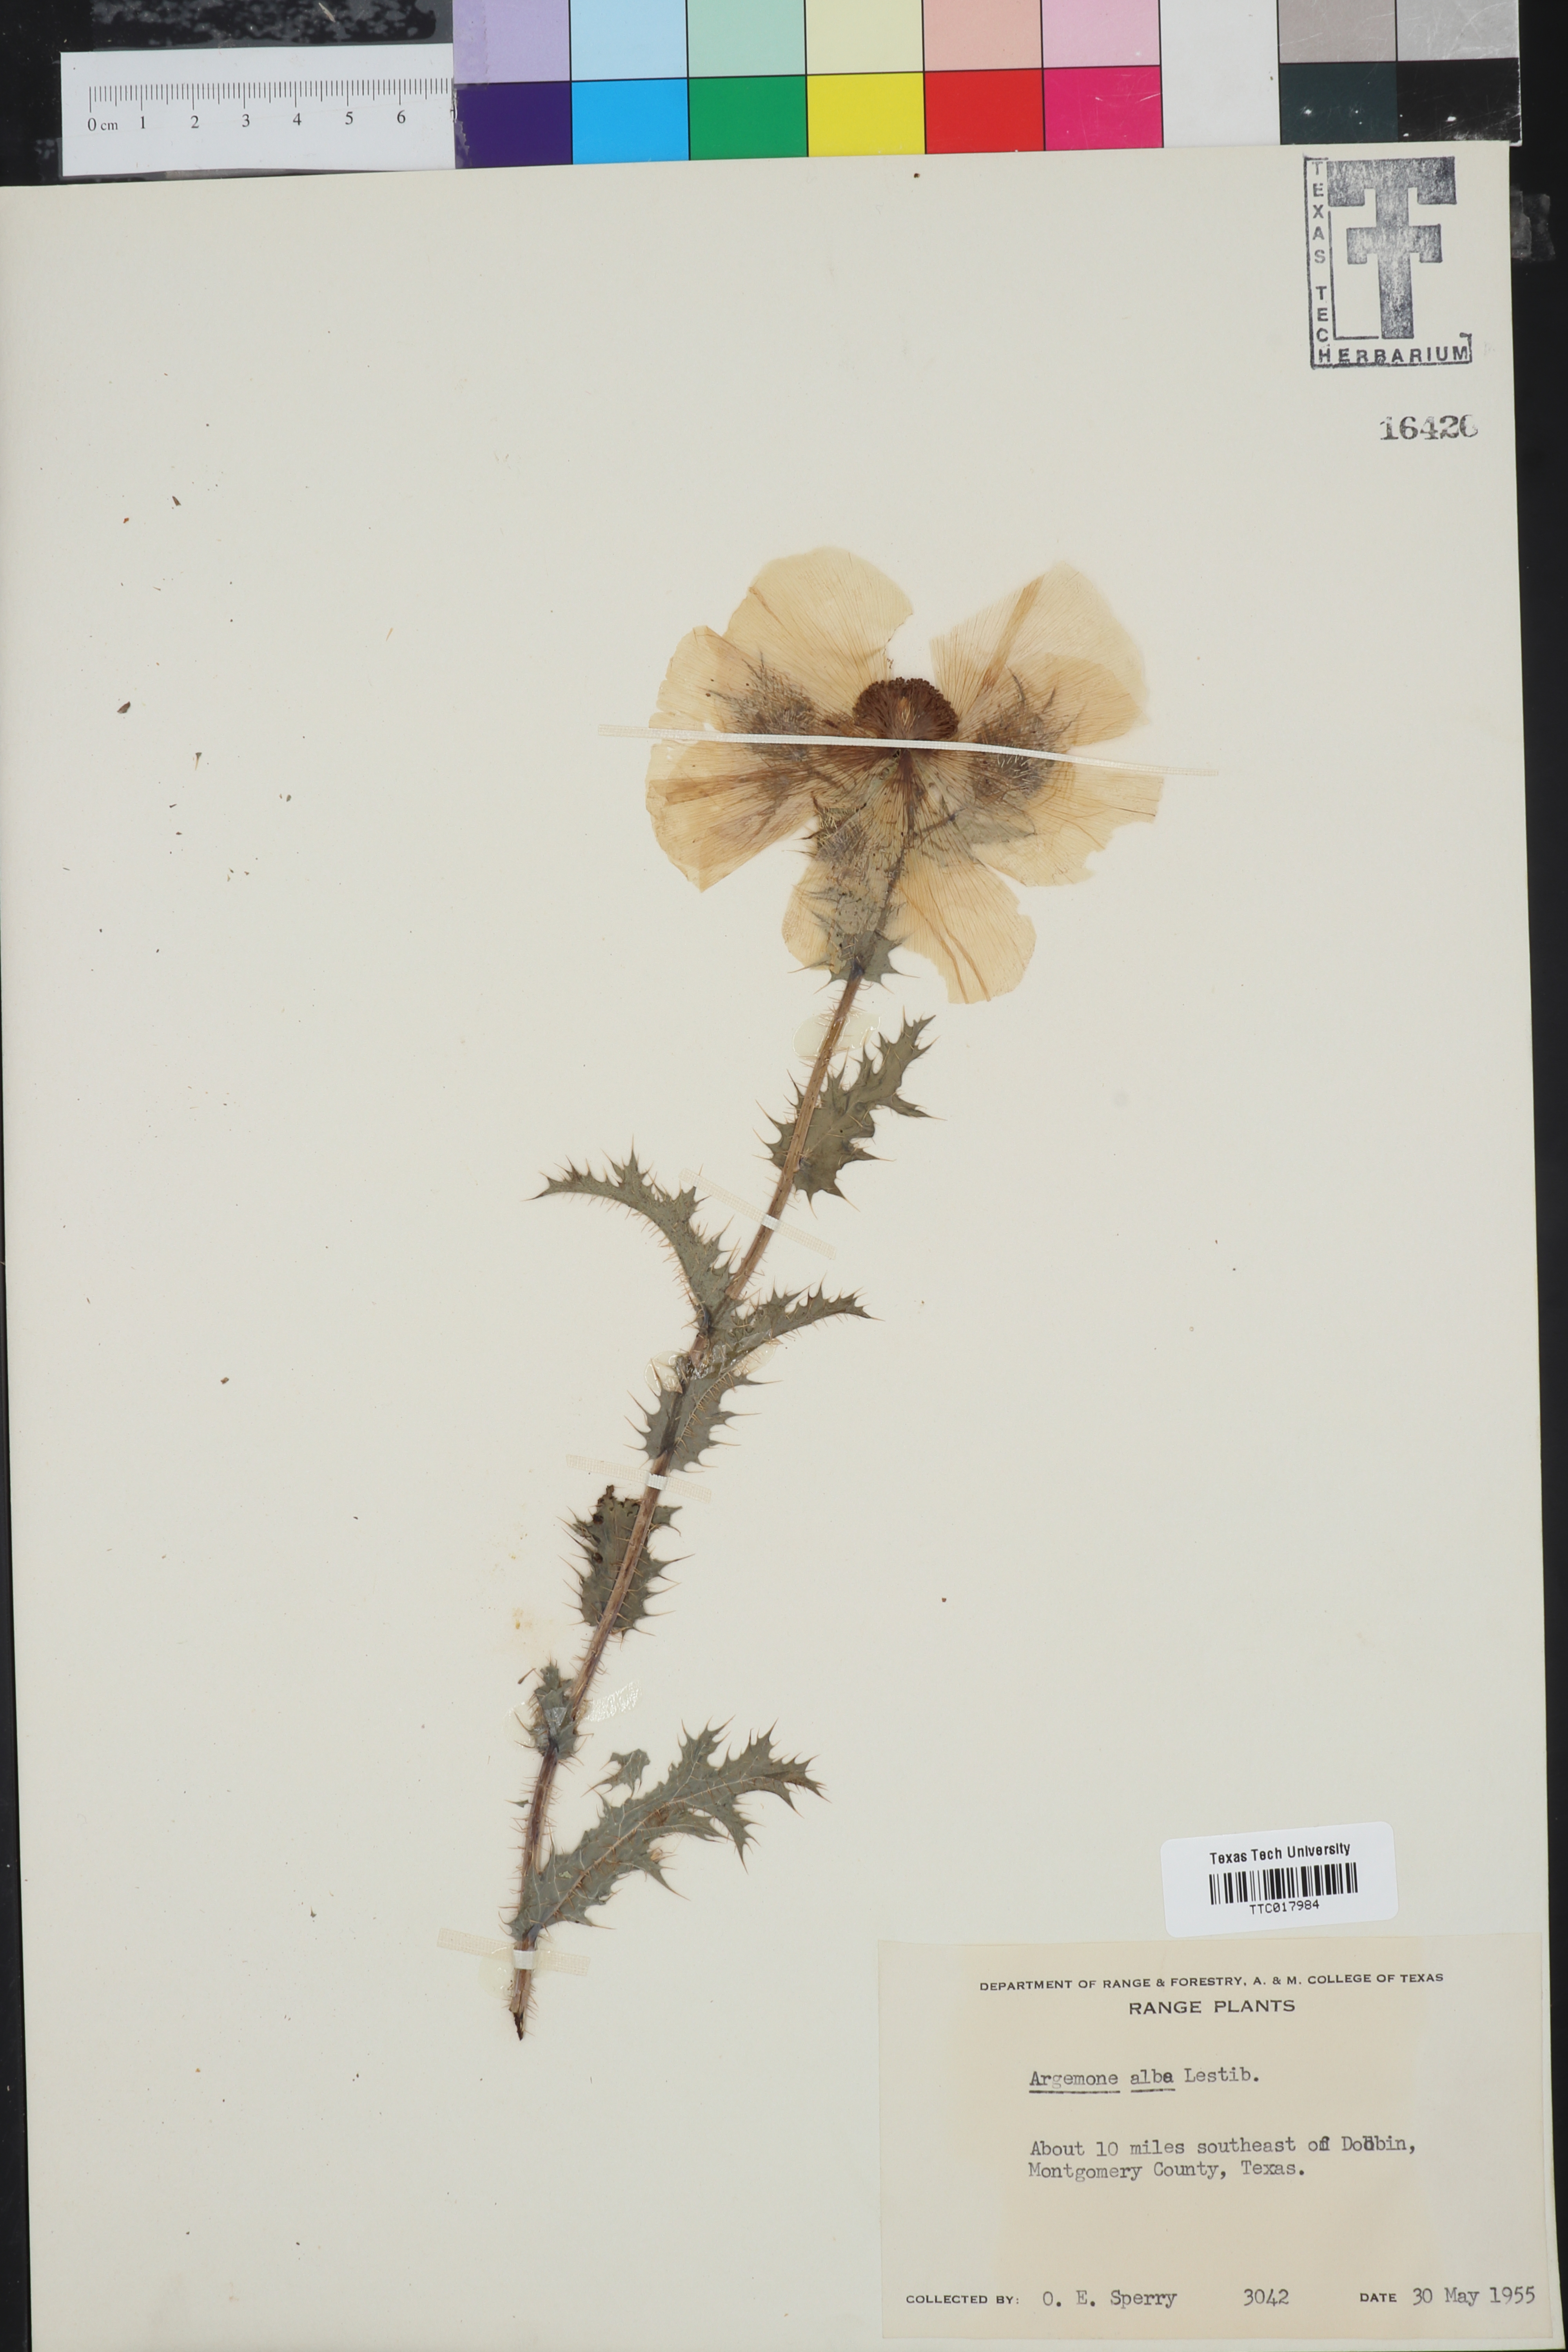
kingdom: Plantae
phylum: Tracheophyta
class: Magnoliopsida
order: Ranunculales
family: Papaveraceae
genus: Argemone
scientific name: Argemone albiflora
